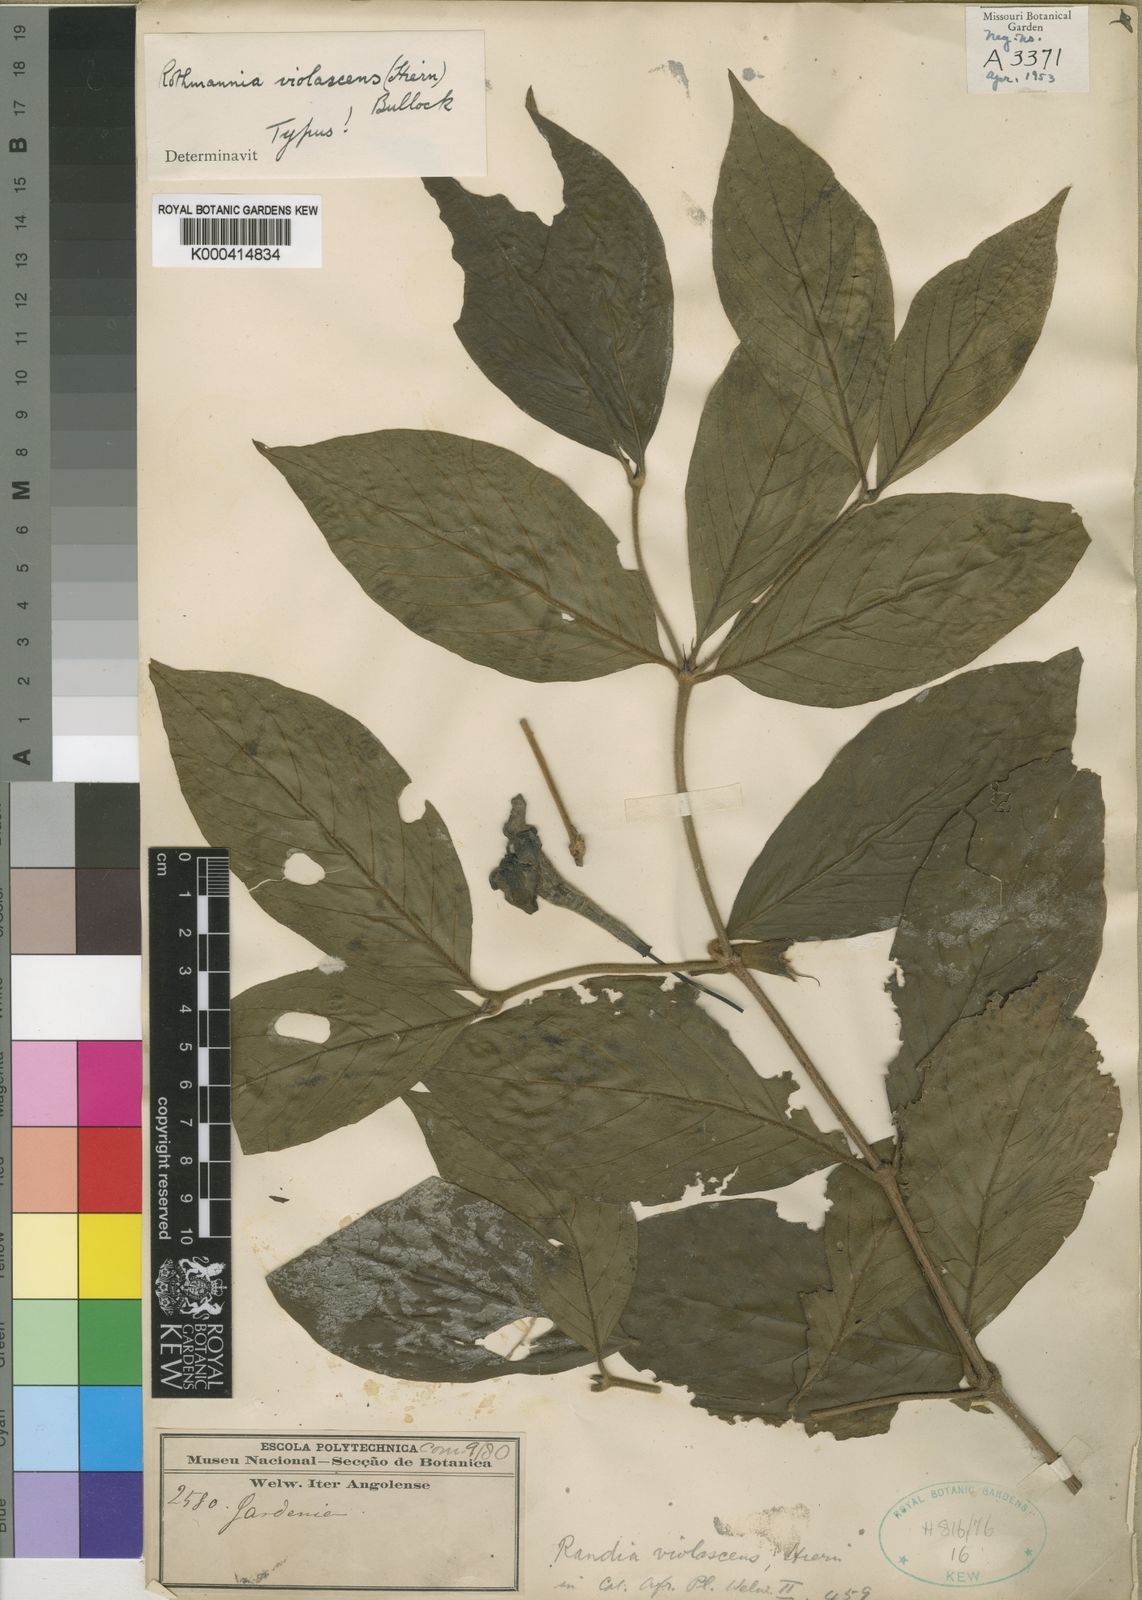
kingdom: Plantae
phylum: Tracheophyta
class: Magnoliopsida
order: Gentianales
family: Rubiaceae
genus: Rothmannia
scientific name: Rothmannia
